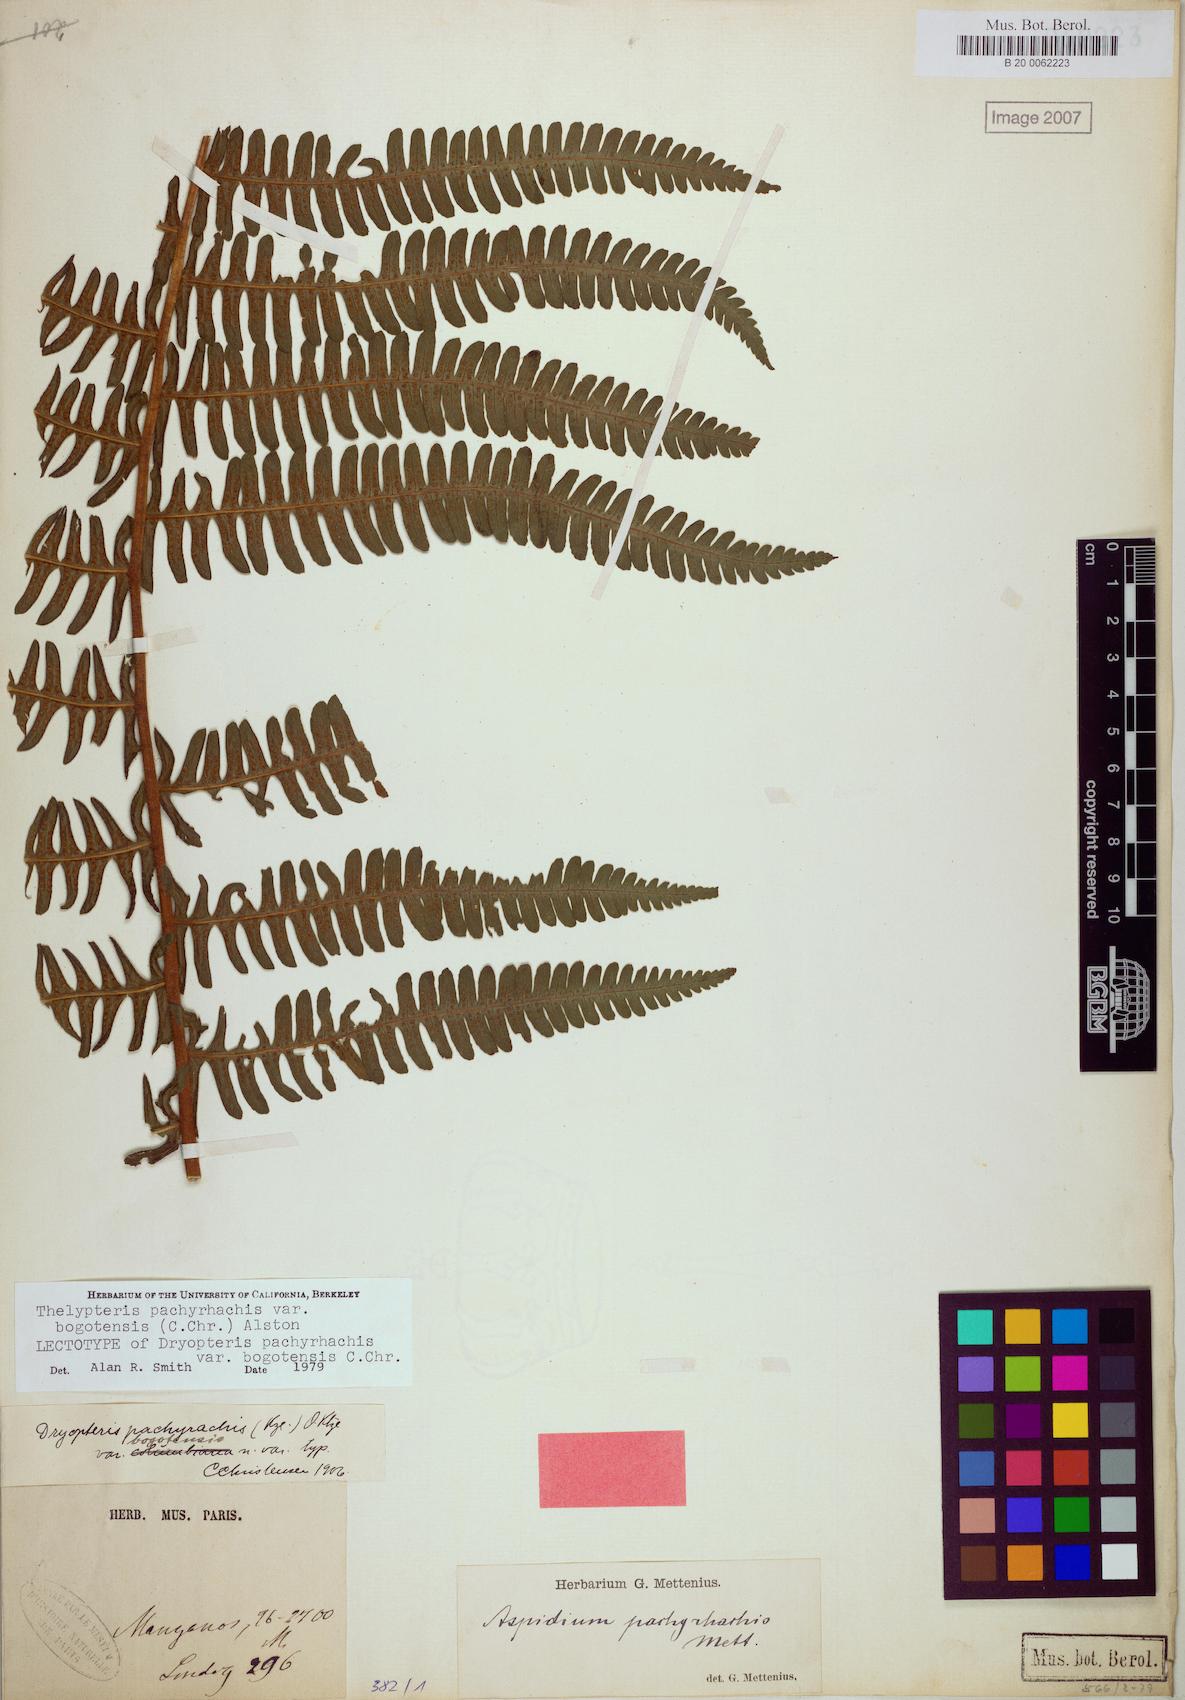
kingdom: Plantae
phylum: Tracheophyta
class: Polypodiopsida
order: Polypodiales
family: Thelypteridaceae
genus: Amauropelta
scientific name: Amauropelta pachyrhachis
